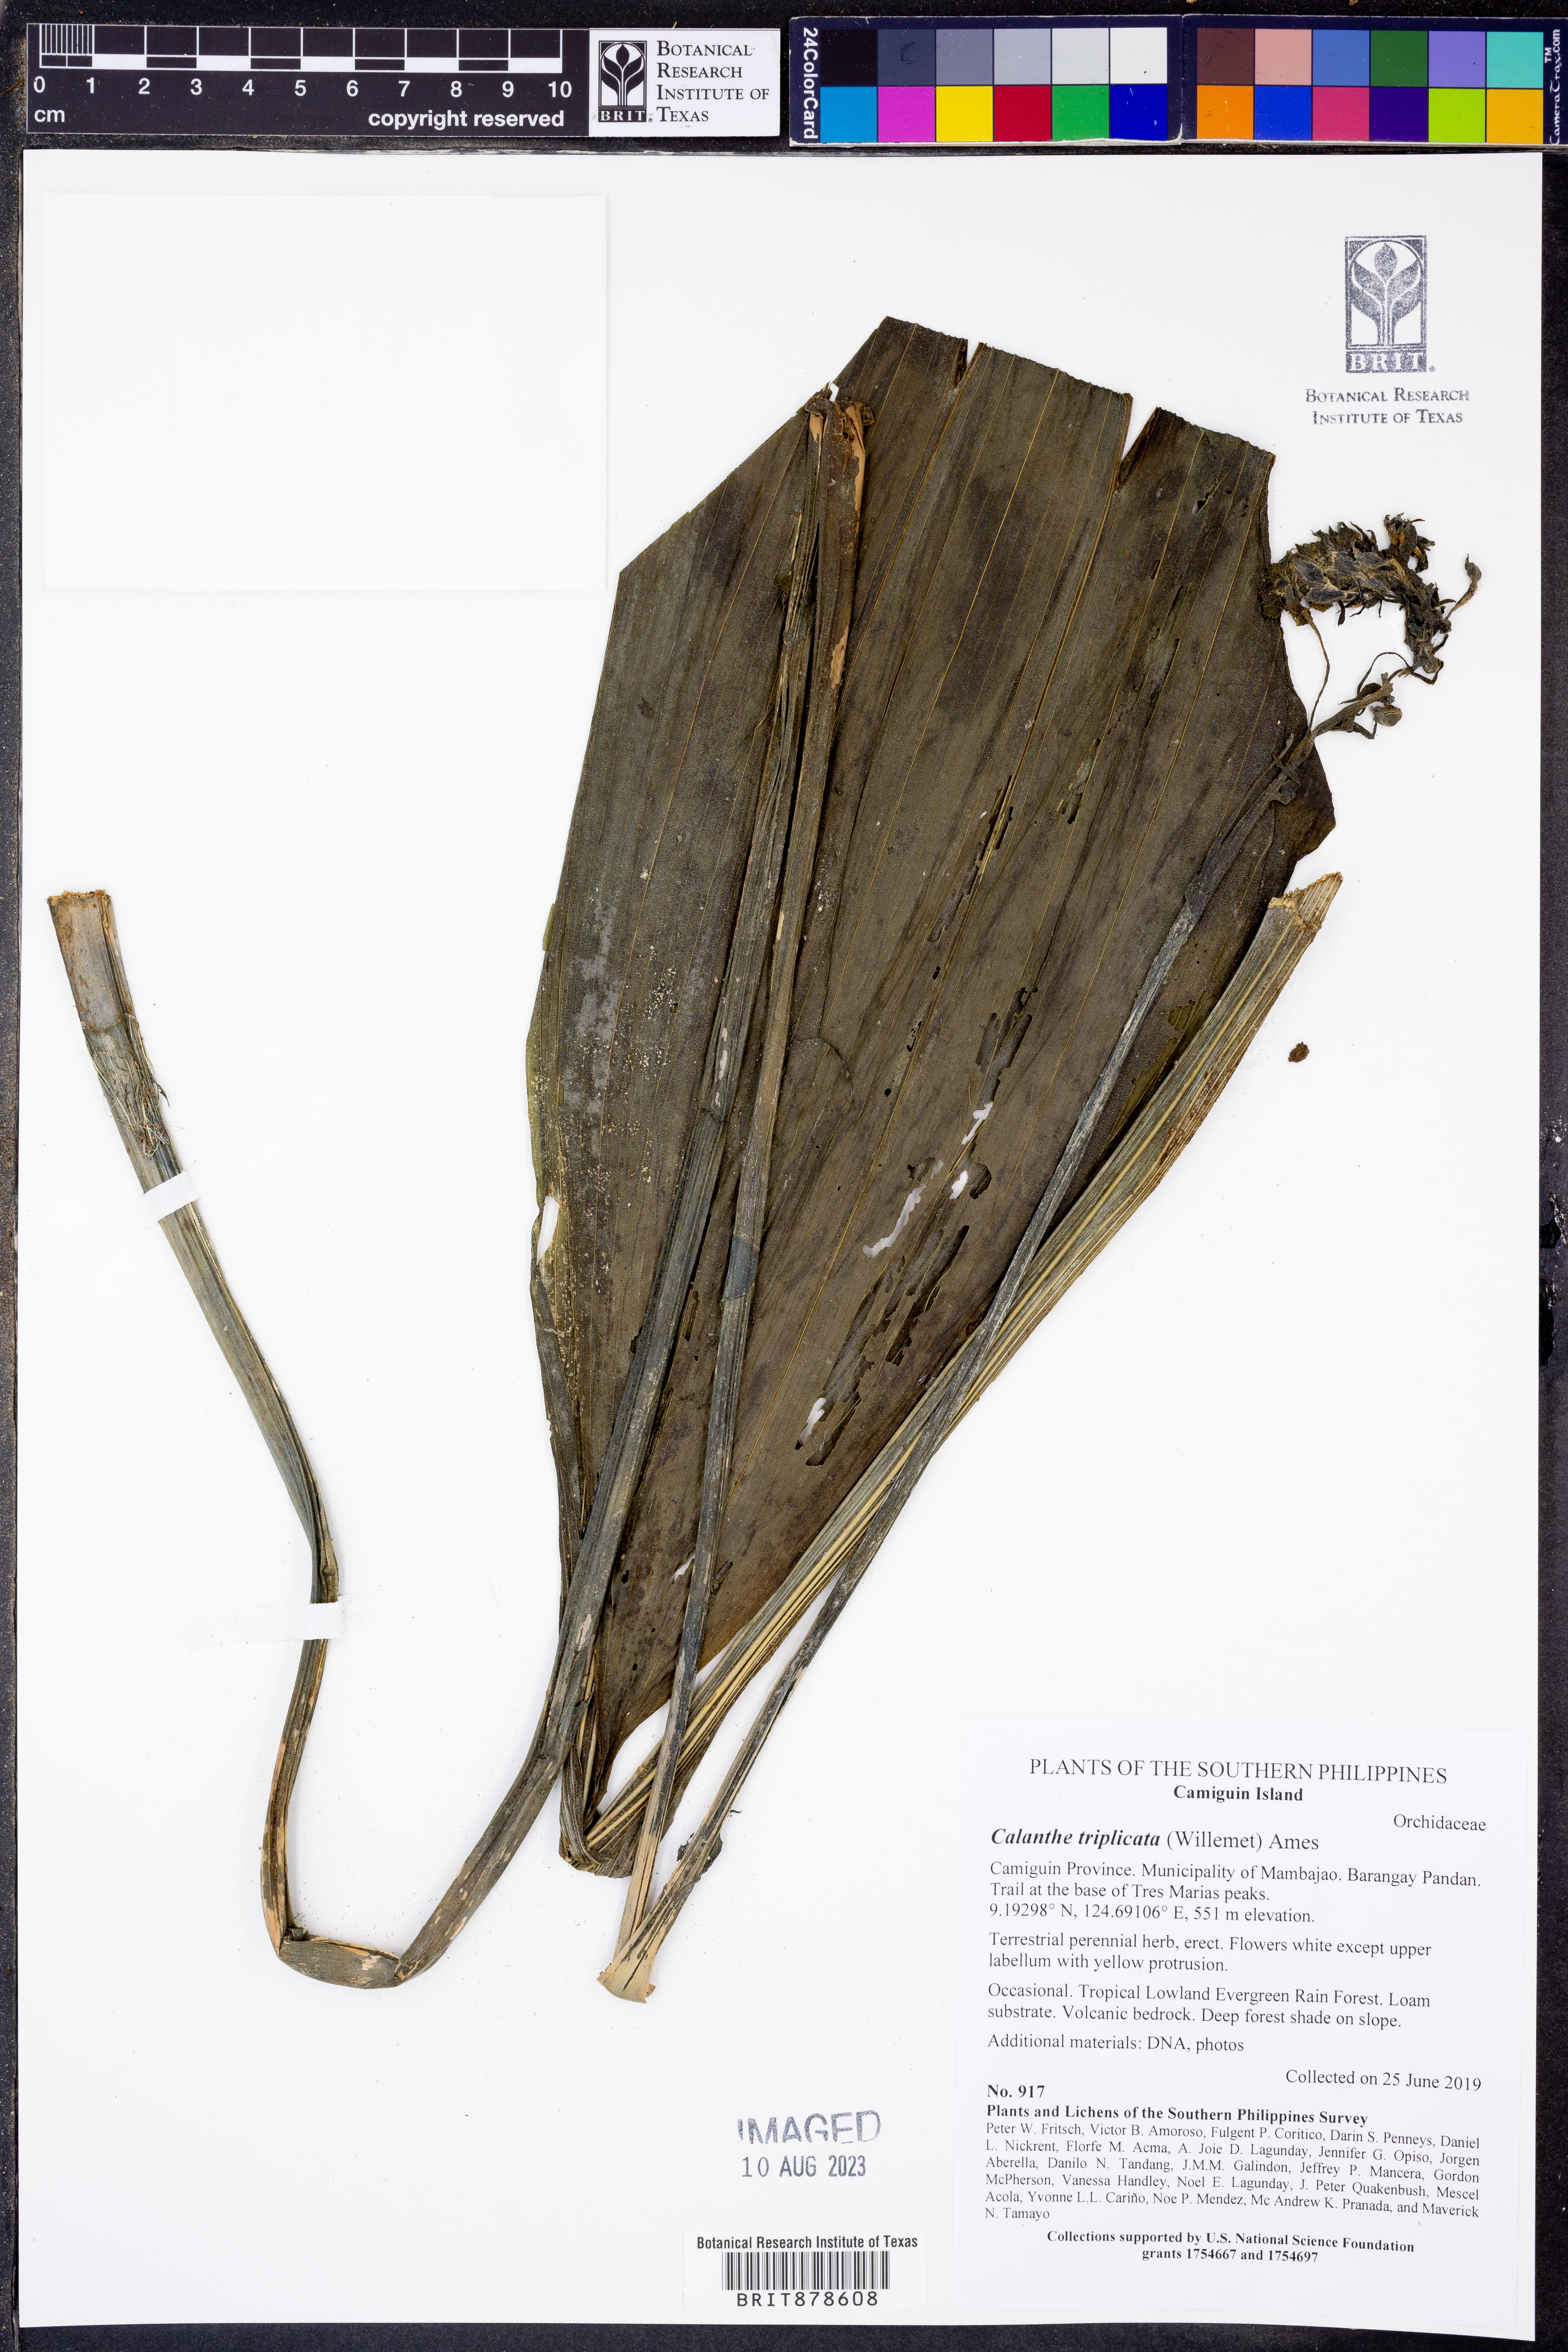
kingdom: Plantae
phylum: Tracheophyta
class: Liliopsida
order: Asparagales
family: Orchidaceae
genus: Calanthe
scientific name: Calanthe triplicata
